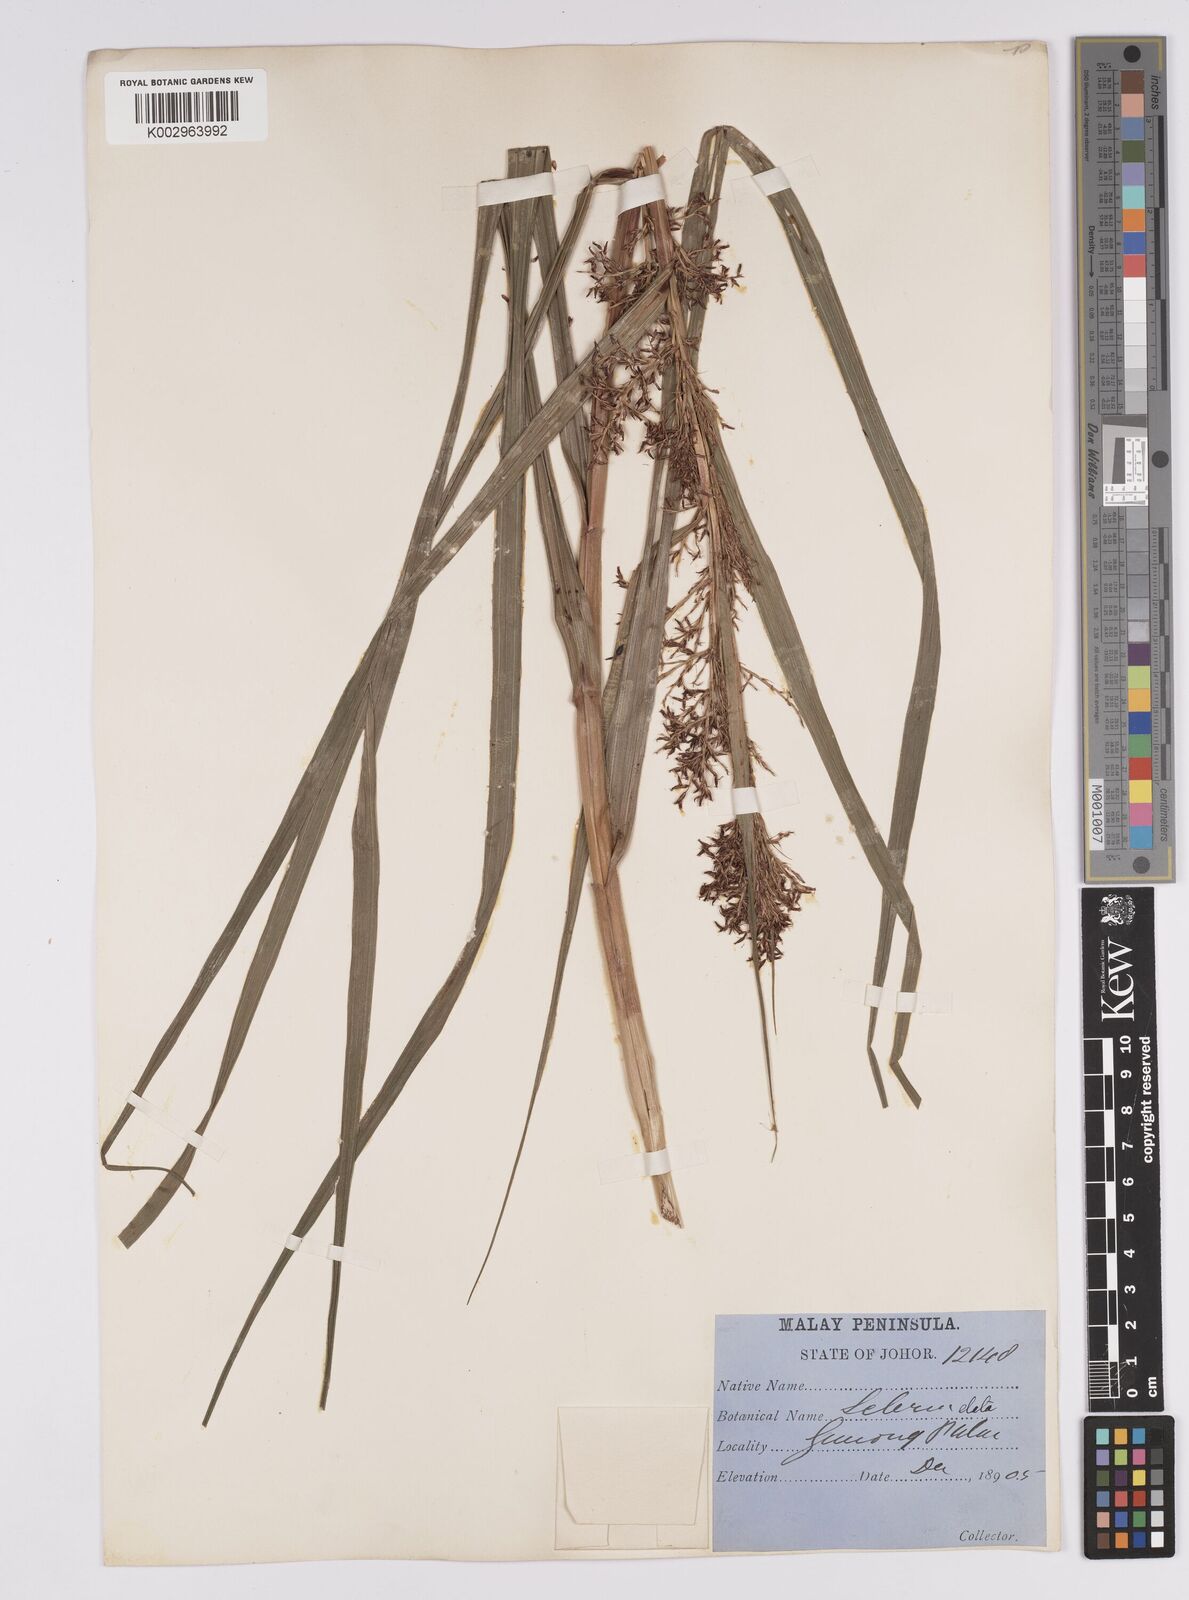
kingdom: Plantae
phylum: Tracheophyta
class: Liliopsida
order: Poales
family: Cyperaceae
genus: Scleria
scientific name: Scleria terrestris
